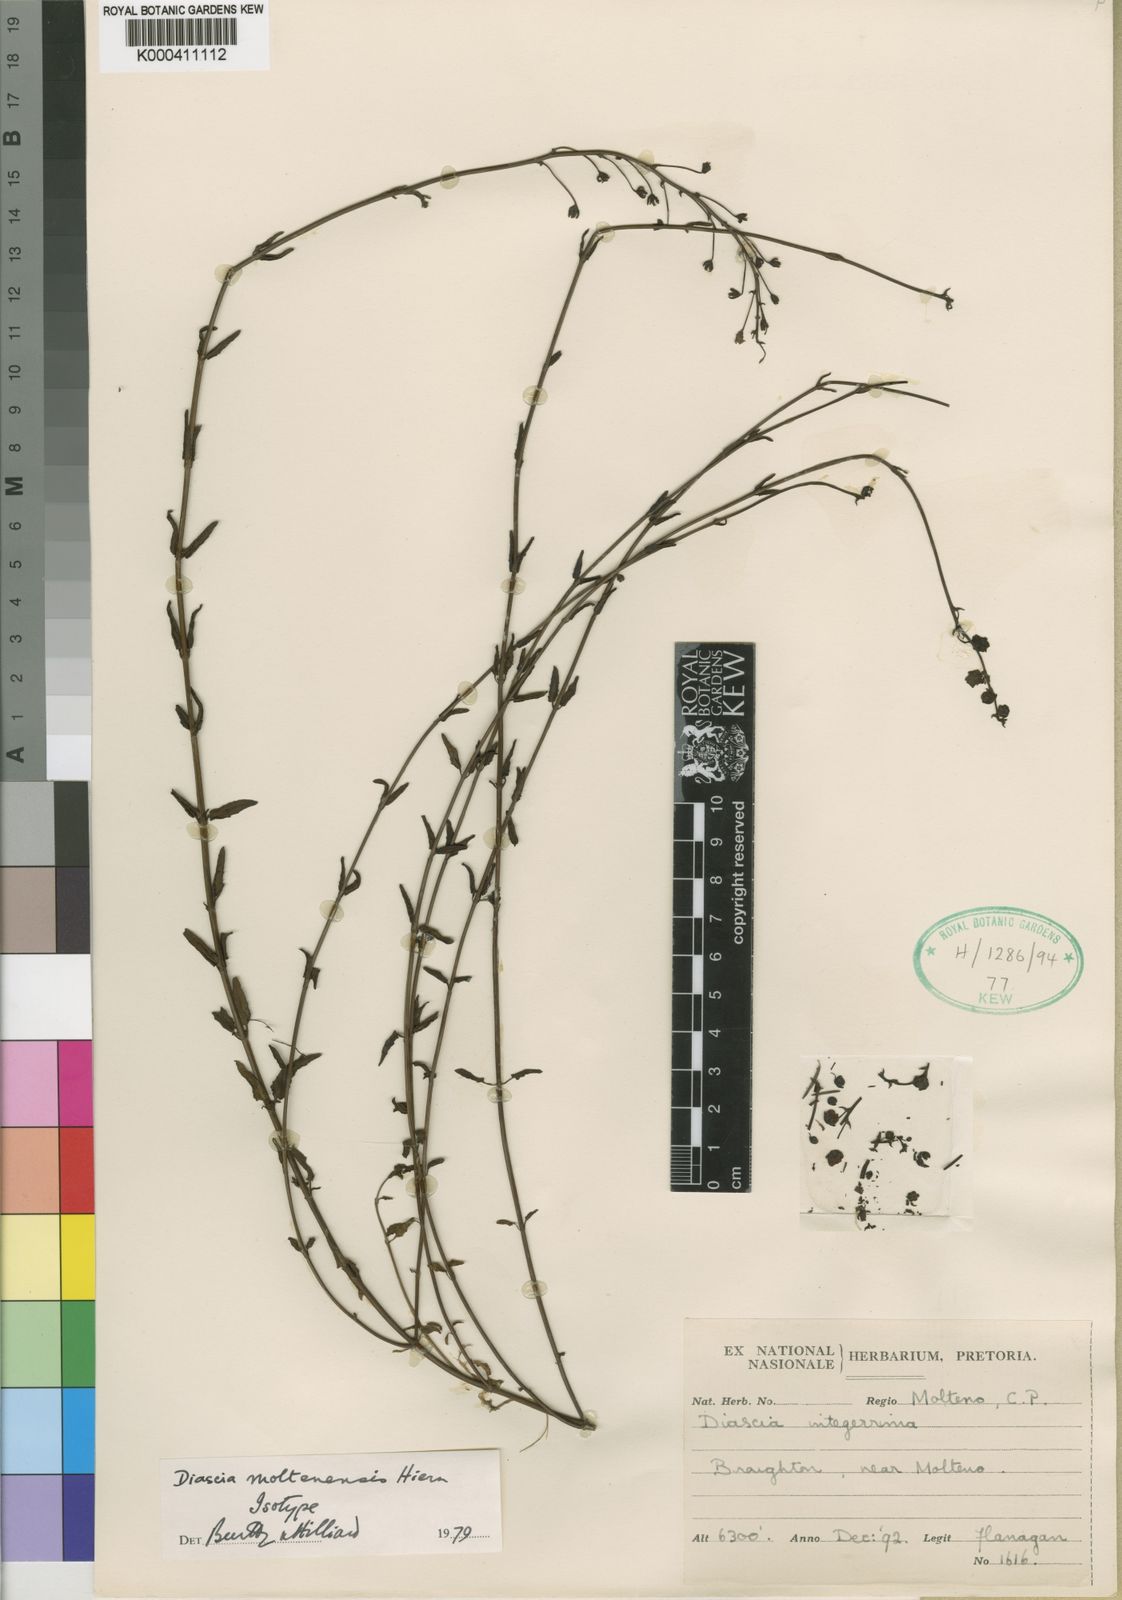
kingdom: Plantae
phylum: Tracheophyta
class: Magnoliopsida
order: Lamiales
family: Scrophulariaceae
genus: Diascia
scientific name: Diascia integerrima
